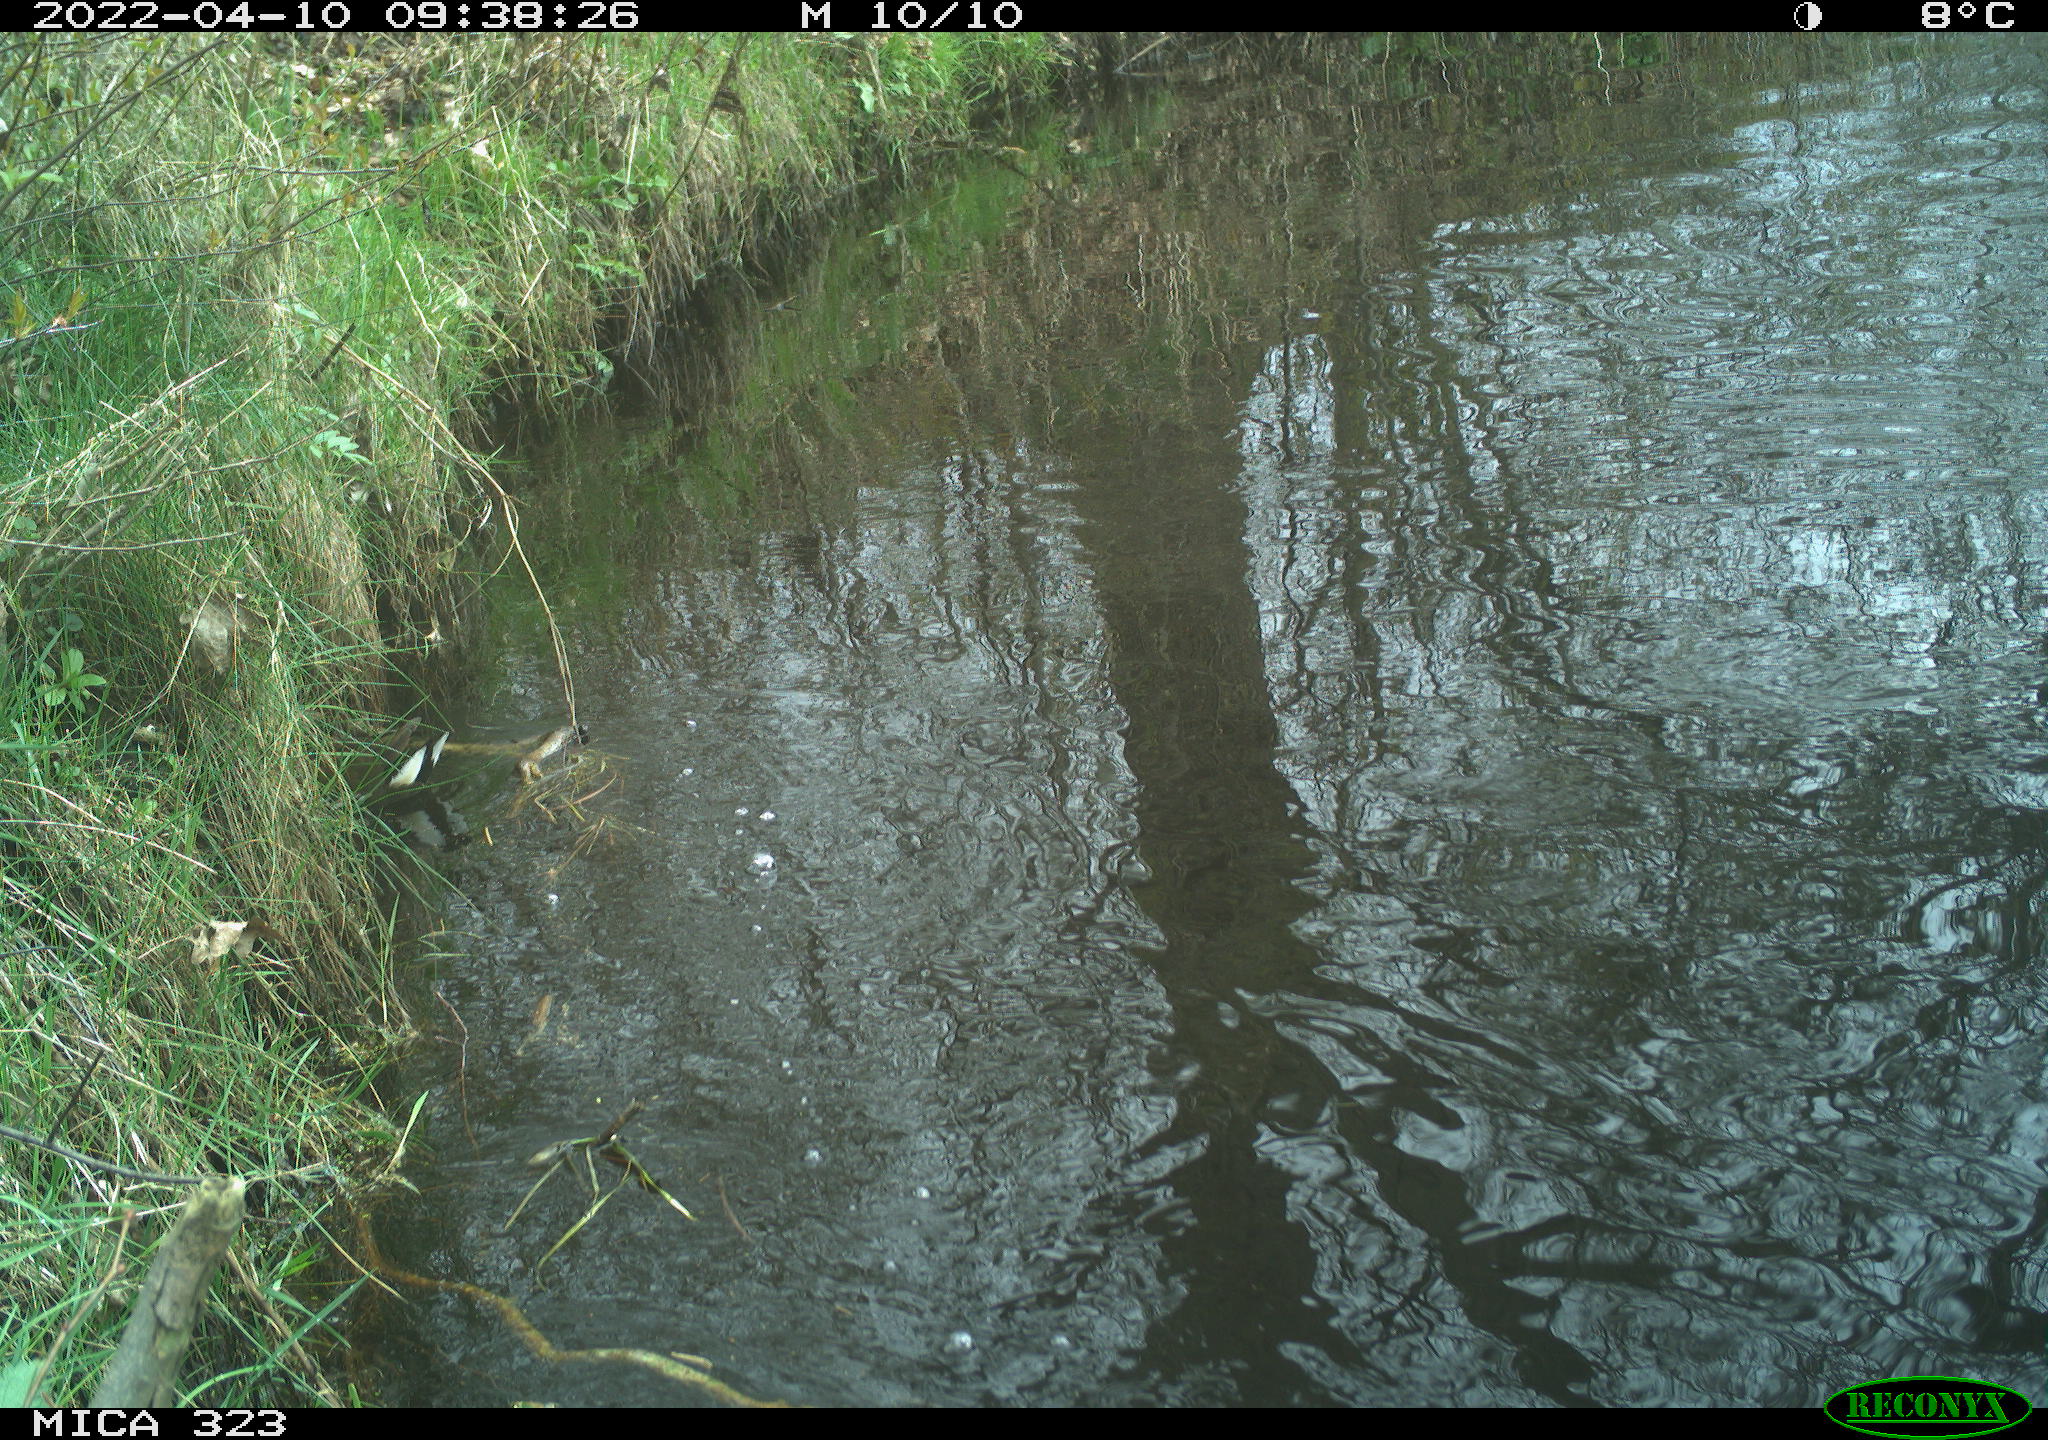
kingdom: Animalia
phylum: Chordata
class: Aves
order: Gruiformes
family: Rallidae
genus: Gallinula
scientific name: Gallinula chloropus
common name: Common moorhen
